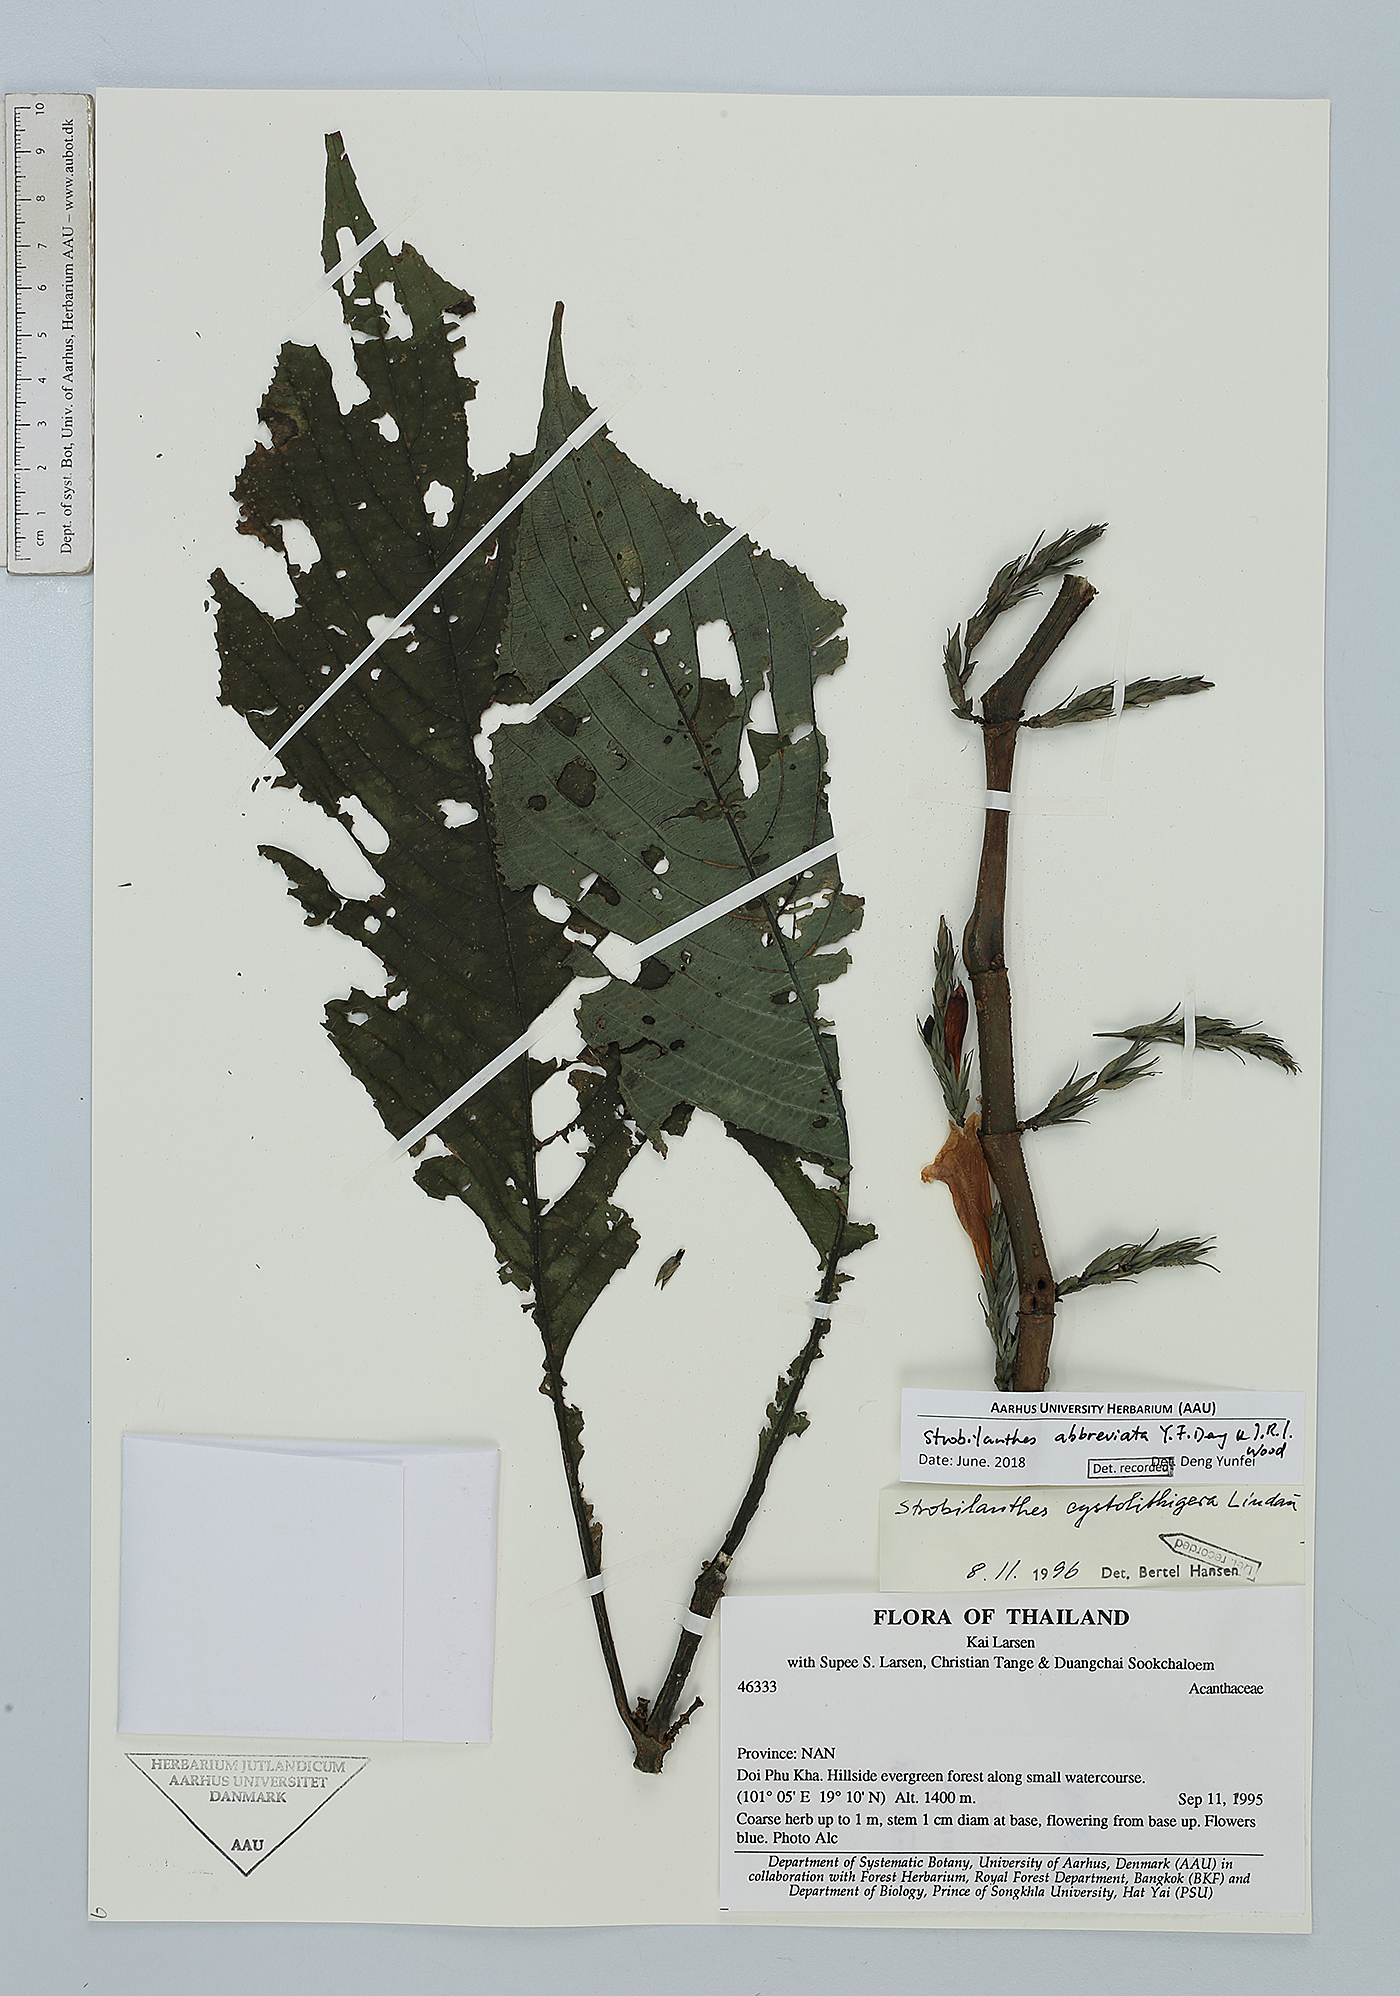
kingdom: Plantae
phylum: Tracheophyta
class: Magnoliopsida
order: Lamiales
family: Acanthaceae
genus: Strobilanthes
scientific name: Strobilanthes abbreviata
